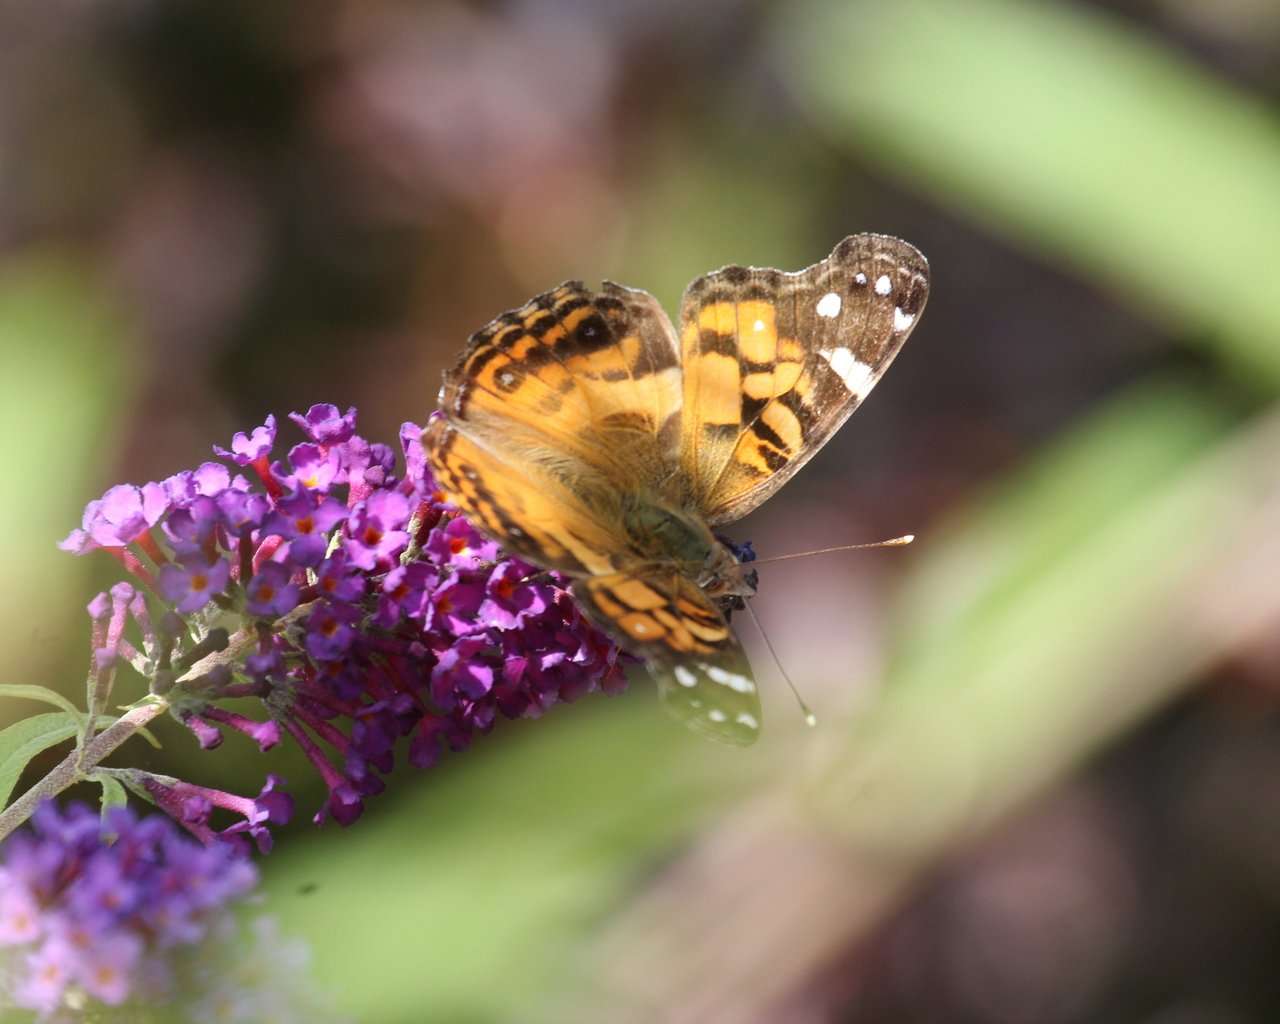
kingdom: Animalia
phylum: Arthropoda
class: Insecta
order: Lepidoptera
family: Nymphalidae
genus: Vanessa
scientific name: Vanessa virginiensis
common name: American Lady
